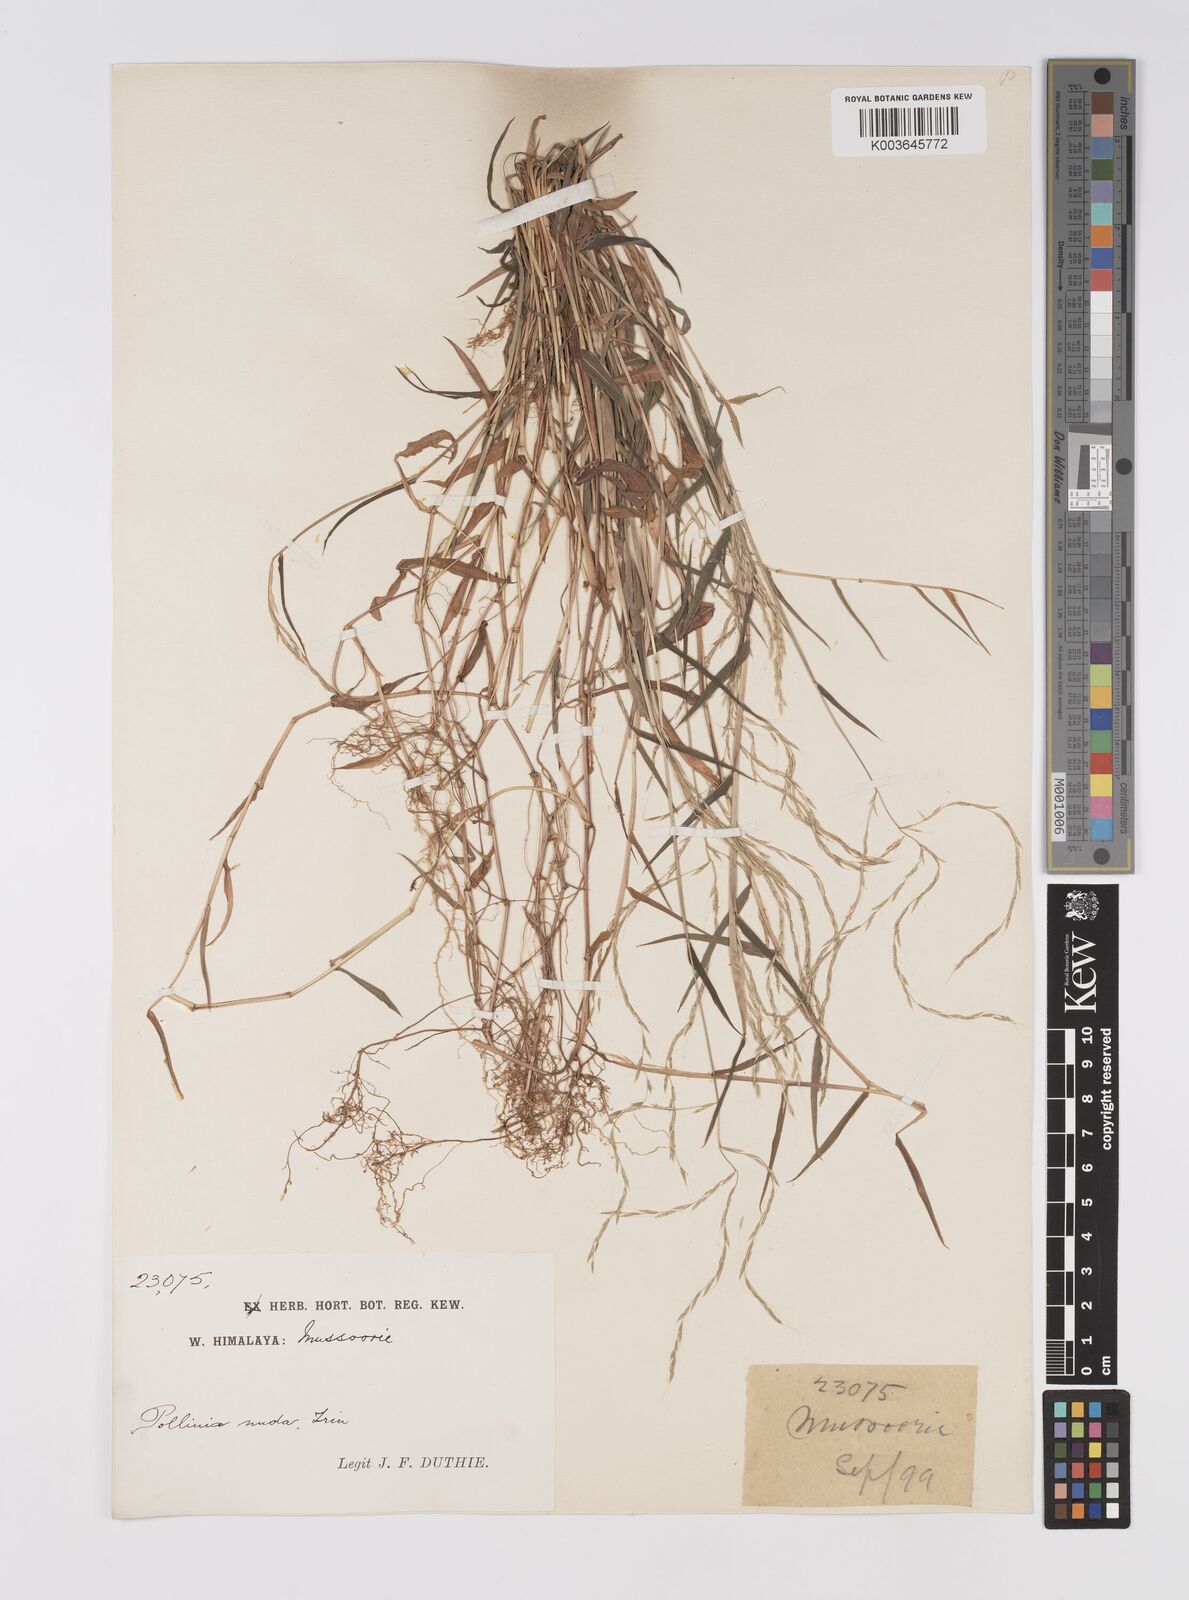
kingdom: Plantae
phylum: Tracheophyta
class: Liliopsida
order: Poales
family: Poaceae
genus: Microstegium
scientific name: Microstegium nudum
